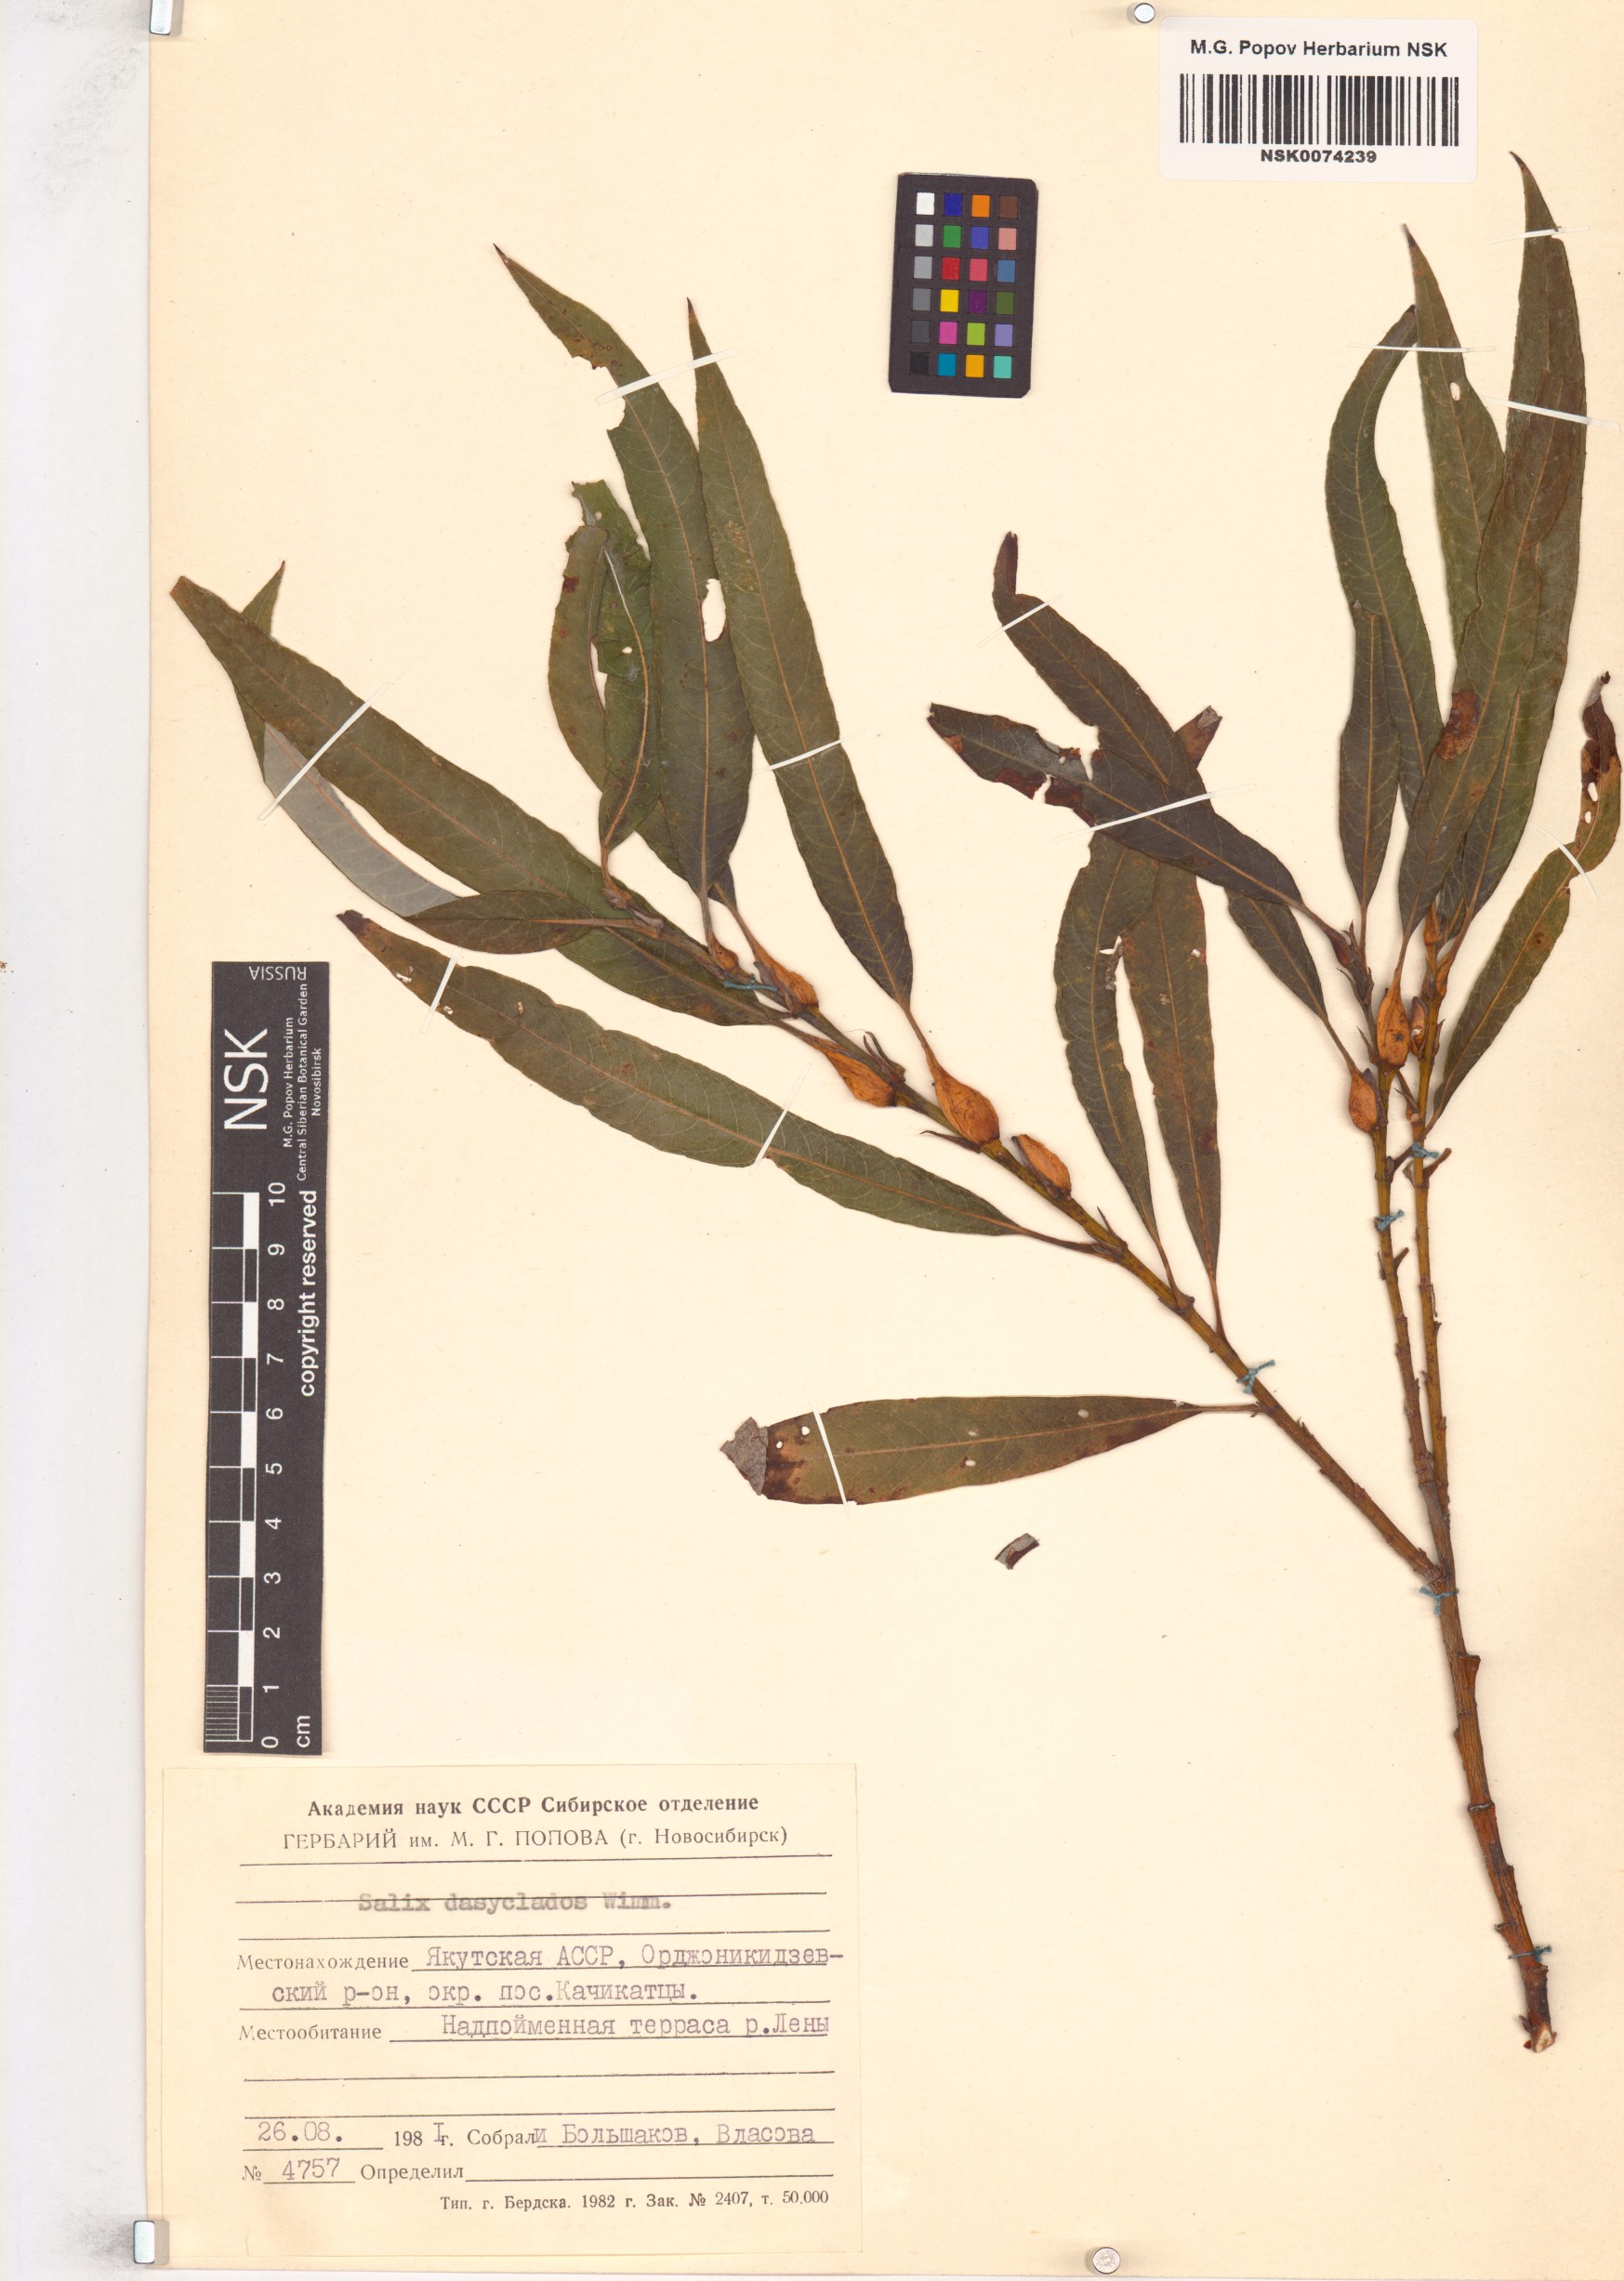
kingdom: Plantae
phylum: Tracheophyta
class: Magnoliopsida
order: Malpighiales
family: Salicaceae
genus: Salix
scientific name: Salix gmelinii
